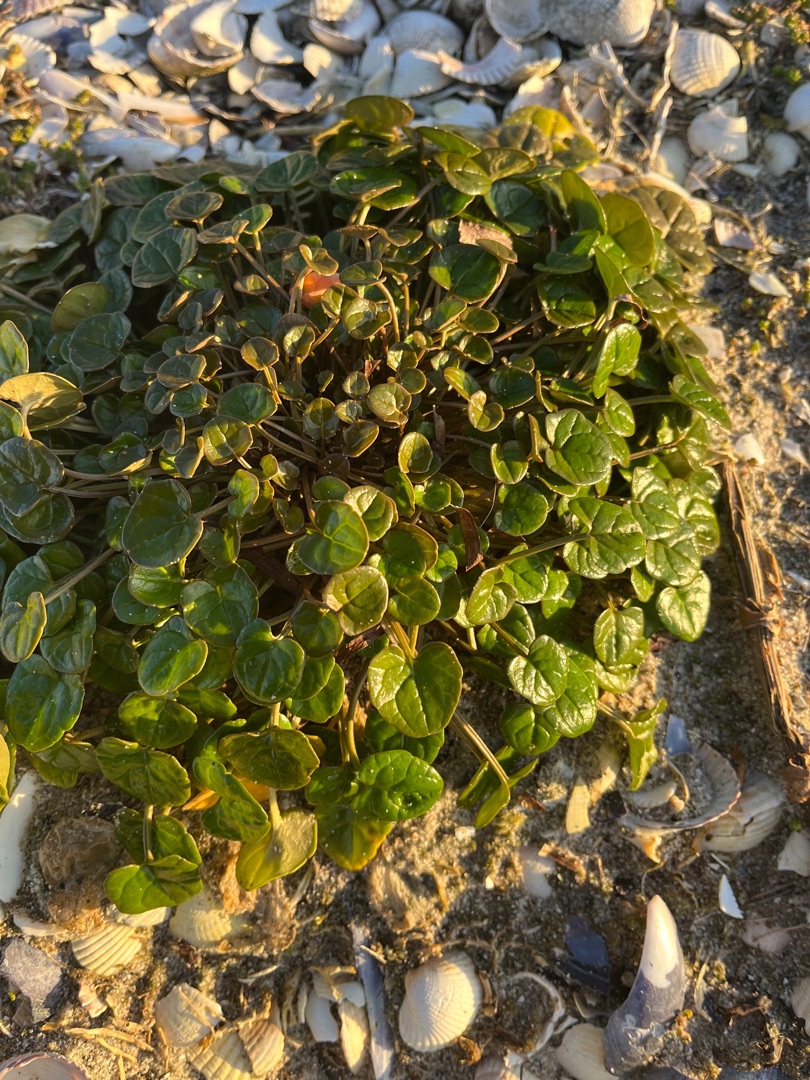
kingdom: Plantae
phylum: Tracheophyta
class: Magnoliopsida
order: Brassicales
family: Brassicaceae
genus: Cochlearia
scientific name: Cochlearia officinalis
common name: Læge-kokleare (underart)
